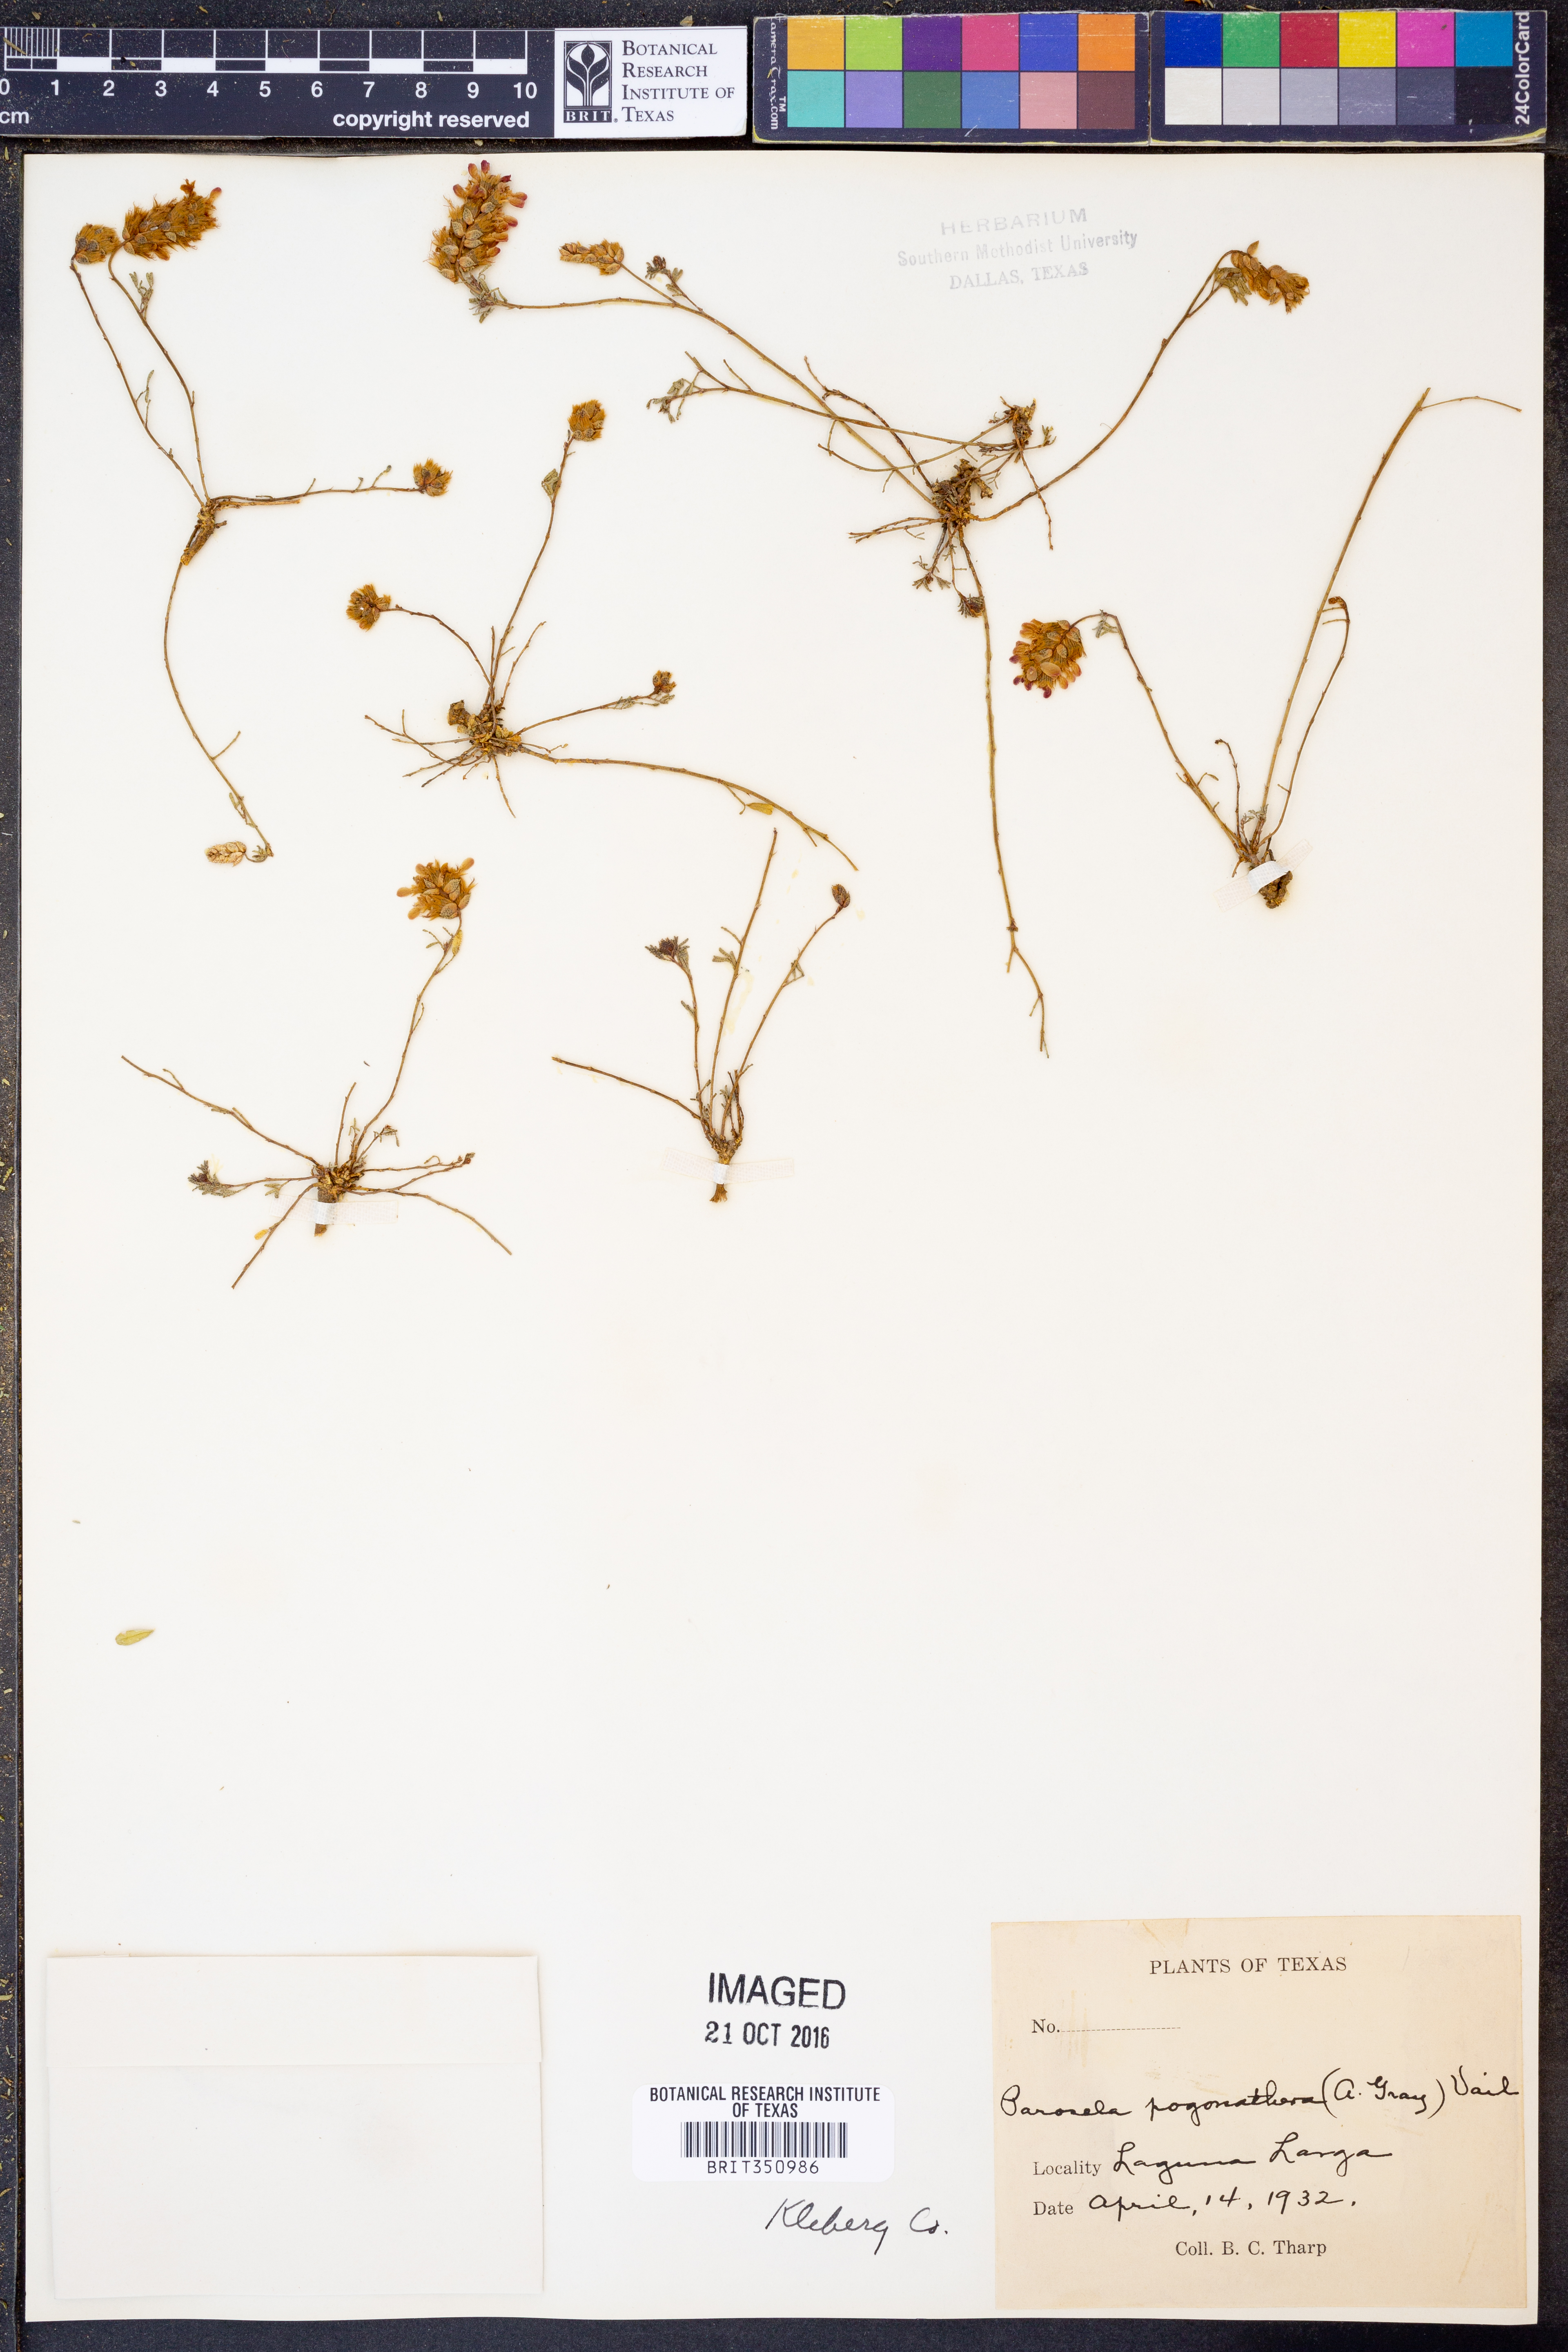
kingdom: Plantae
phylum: Tracheophyta
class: Magnoliopsida
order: Fabales
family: Fabaceae
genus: Dalea
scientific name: Dalea pogonathera
